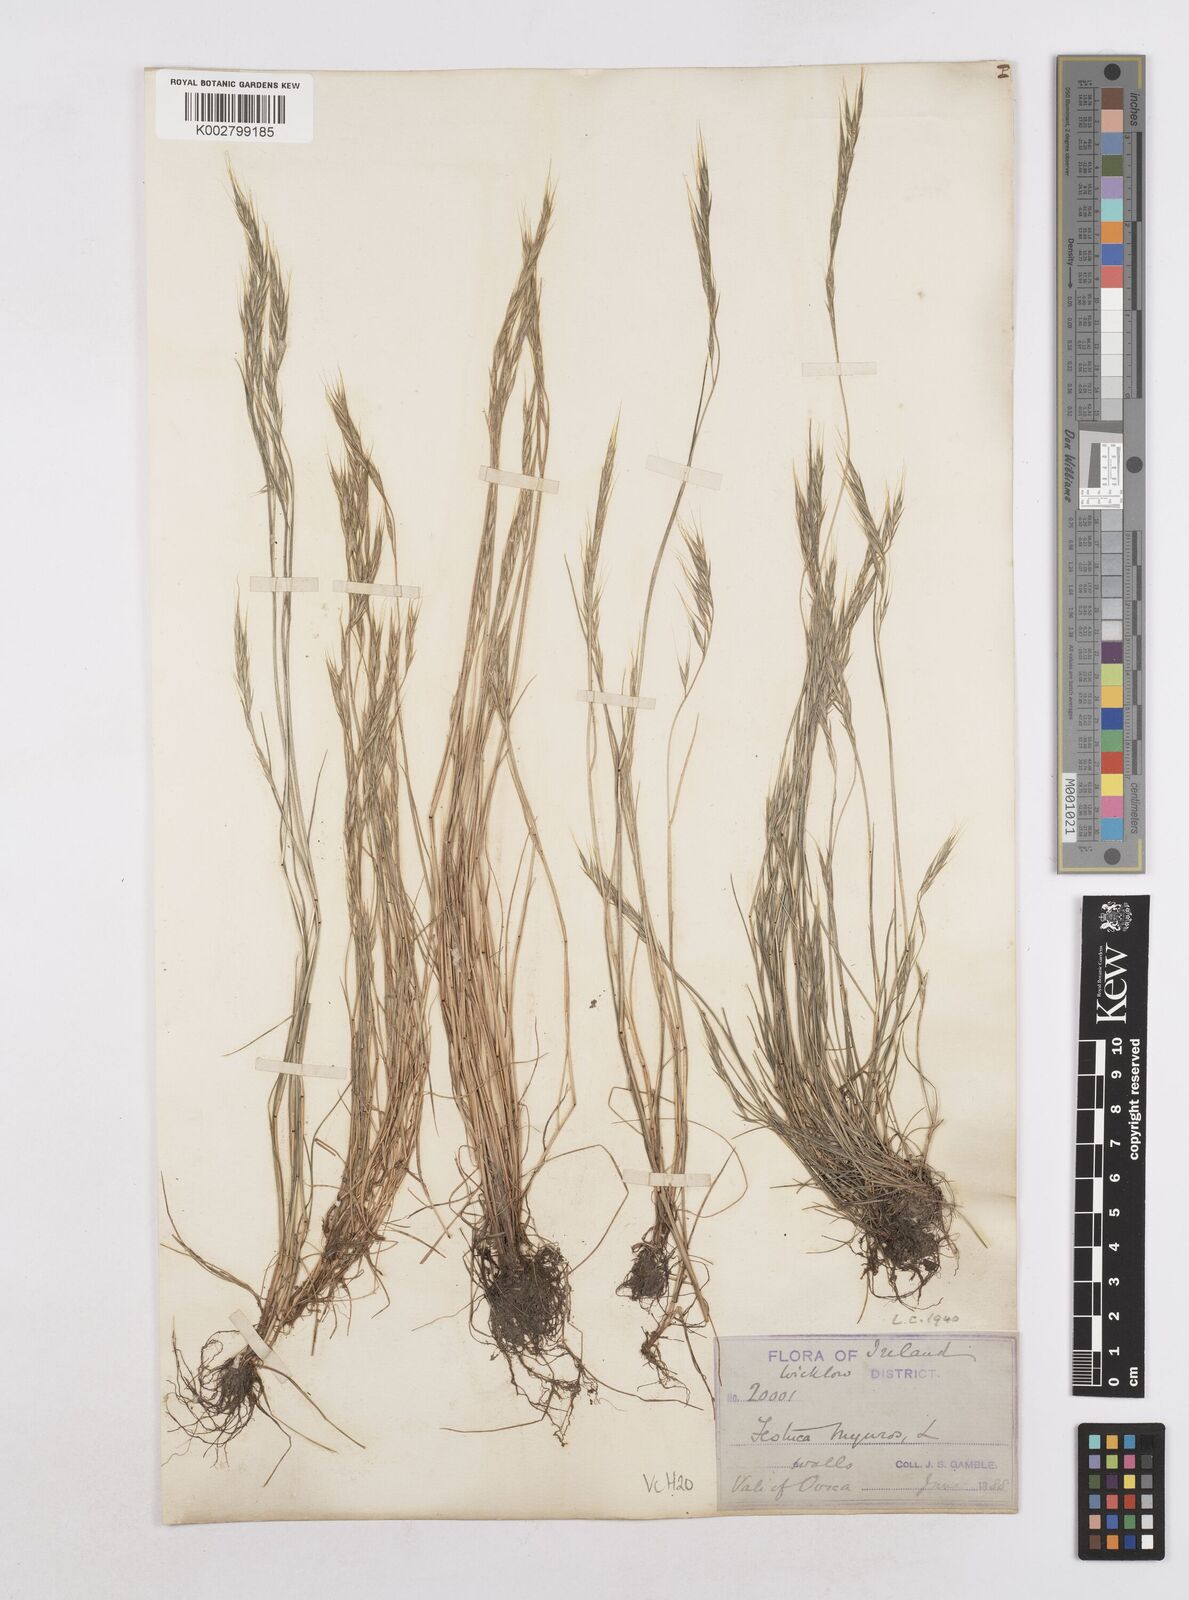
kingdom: Plantae
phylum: Tracheophyta
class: Liliopsida
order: Poales
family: Poaceae
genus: Festuca
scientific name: Festuca bromoides
